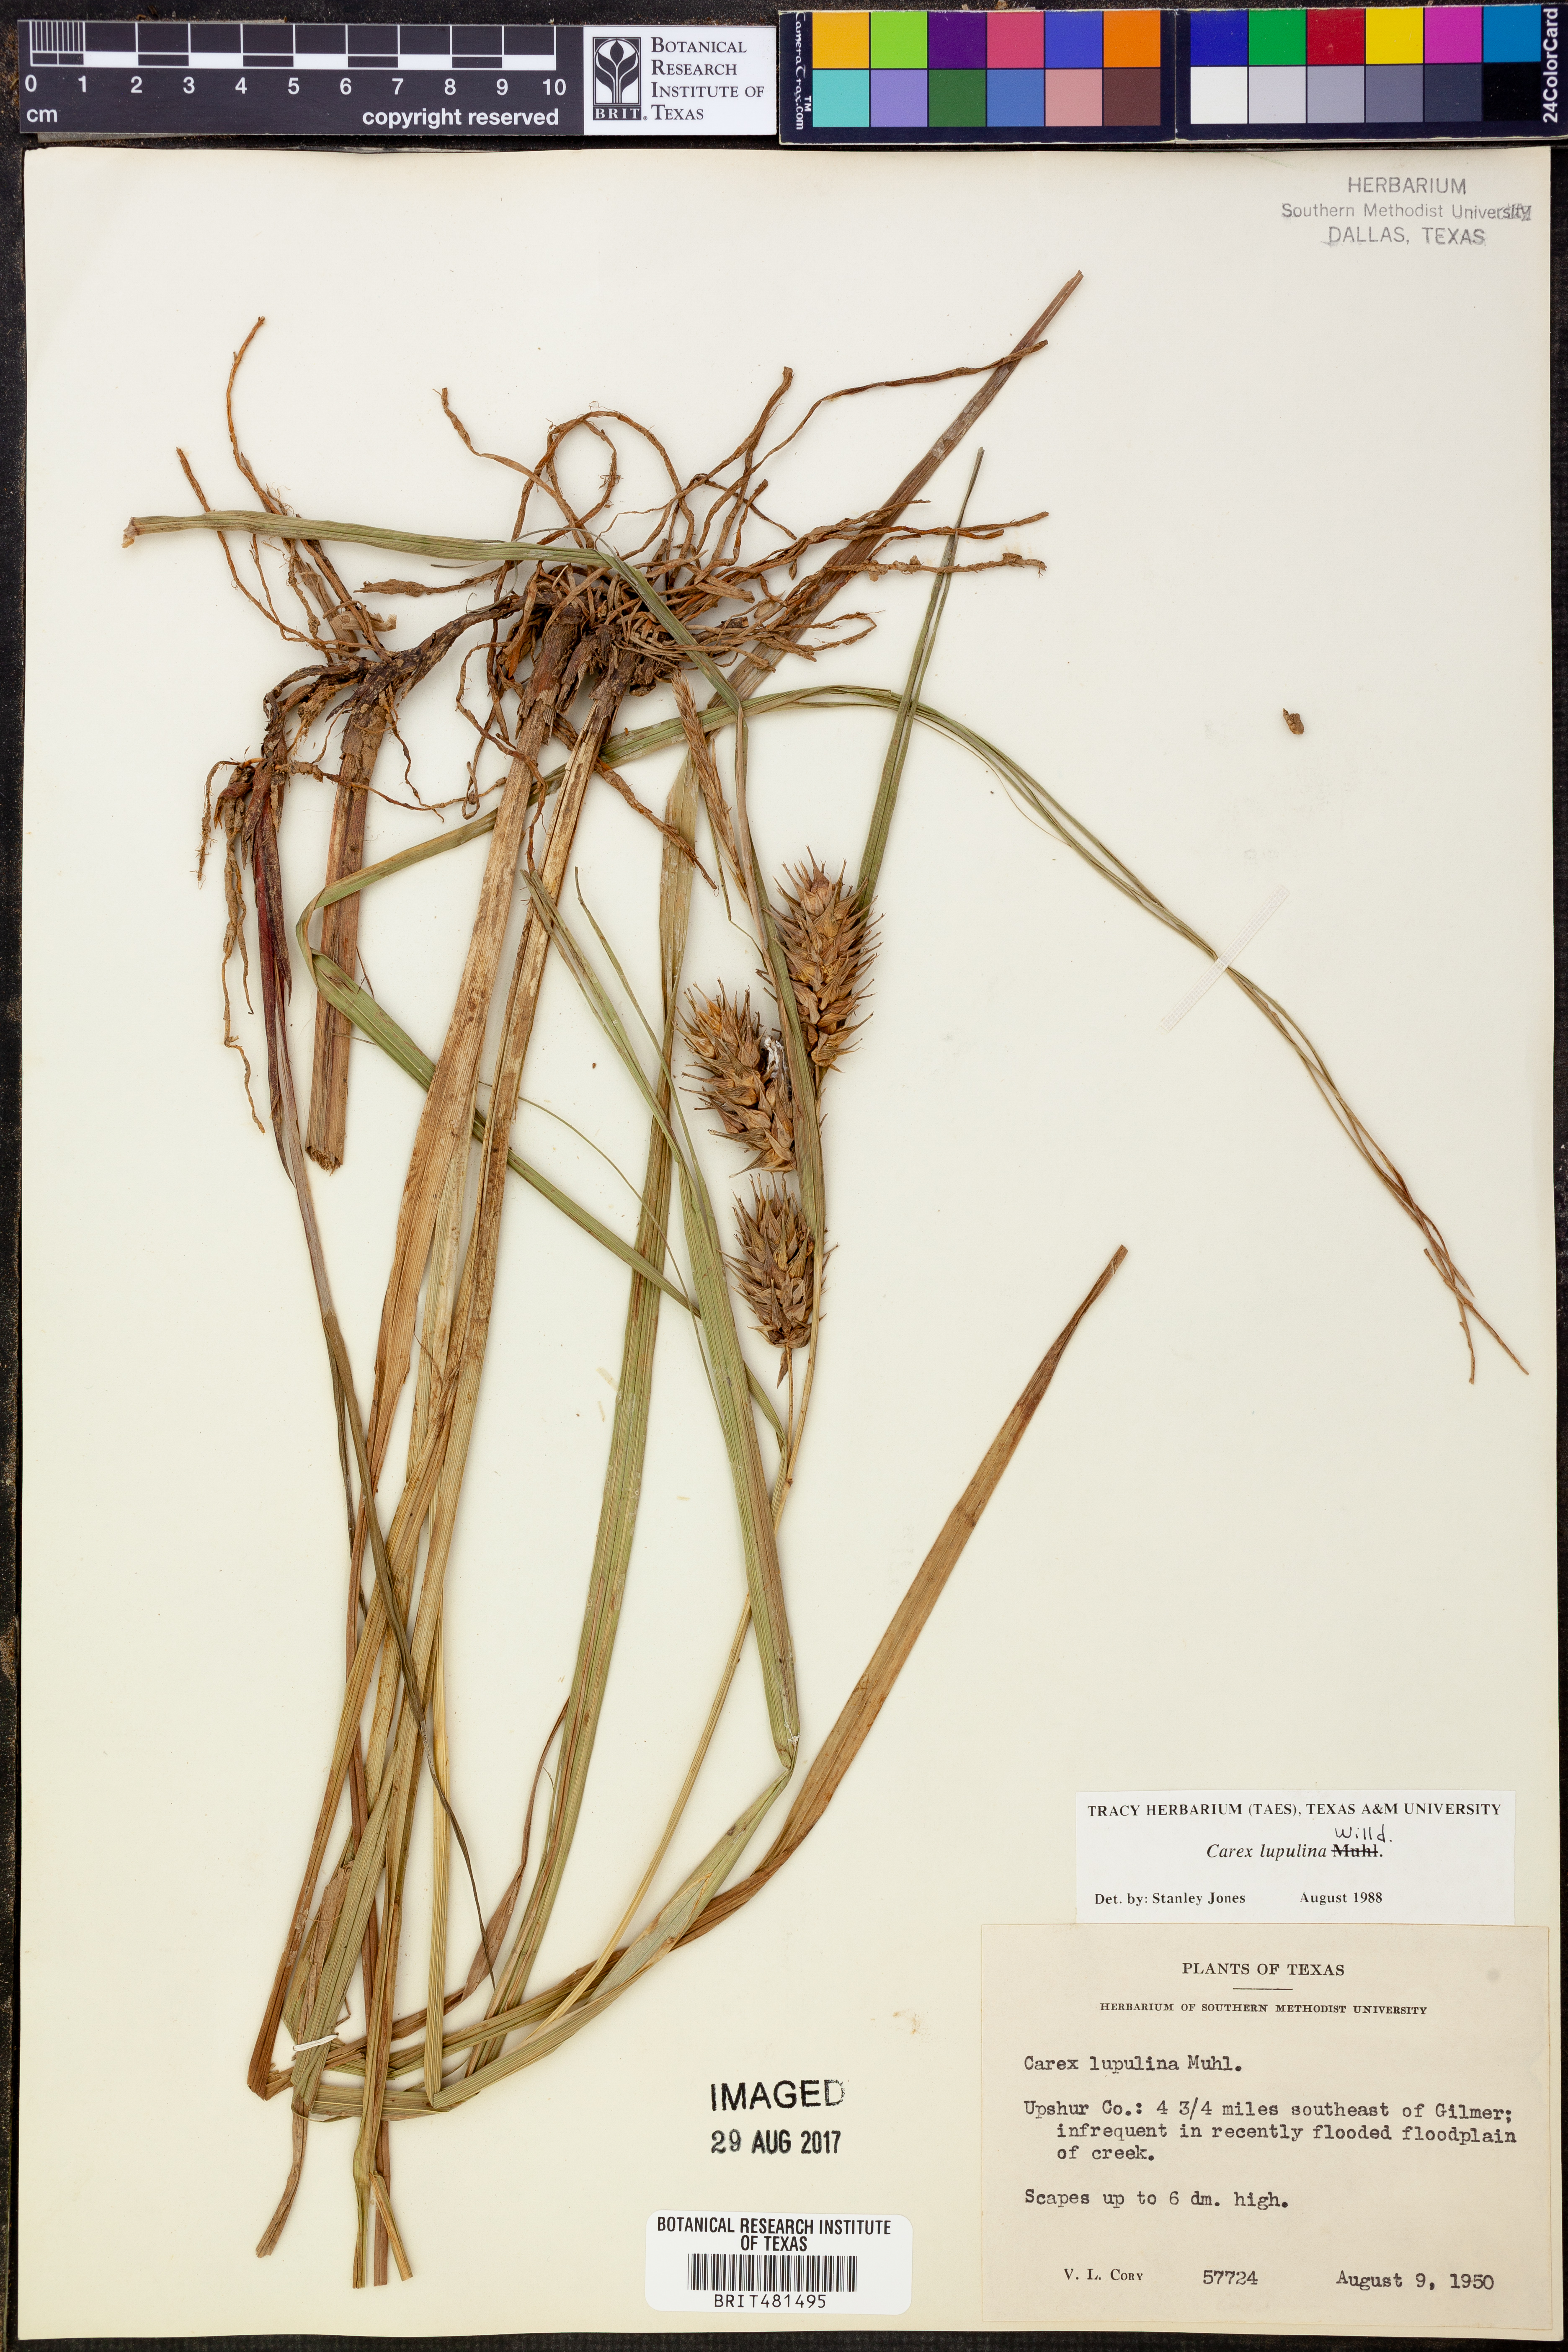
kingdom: Plantae
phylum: Tracheophyta
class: Liliopsida
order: Poales
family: Cyperaceae
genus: Carex
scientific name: Carex lupulina
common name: Hop sedge
